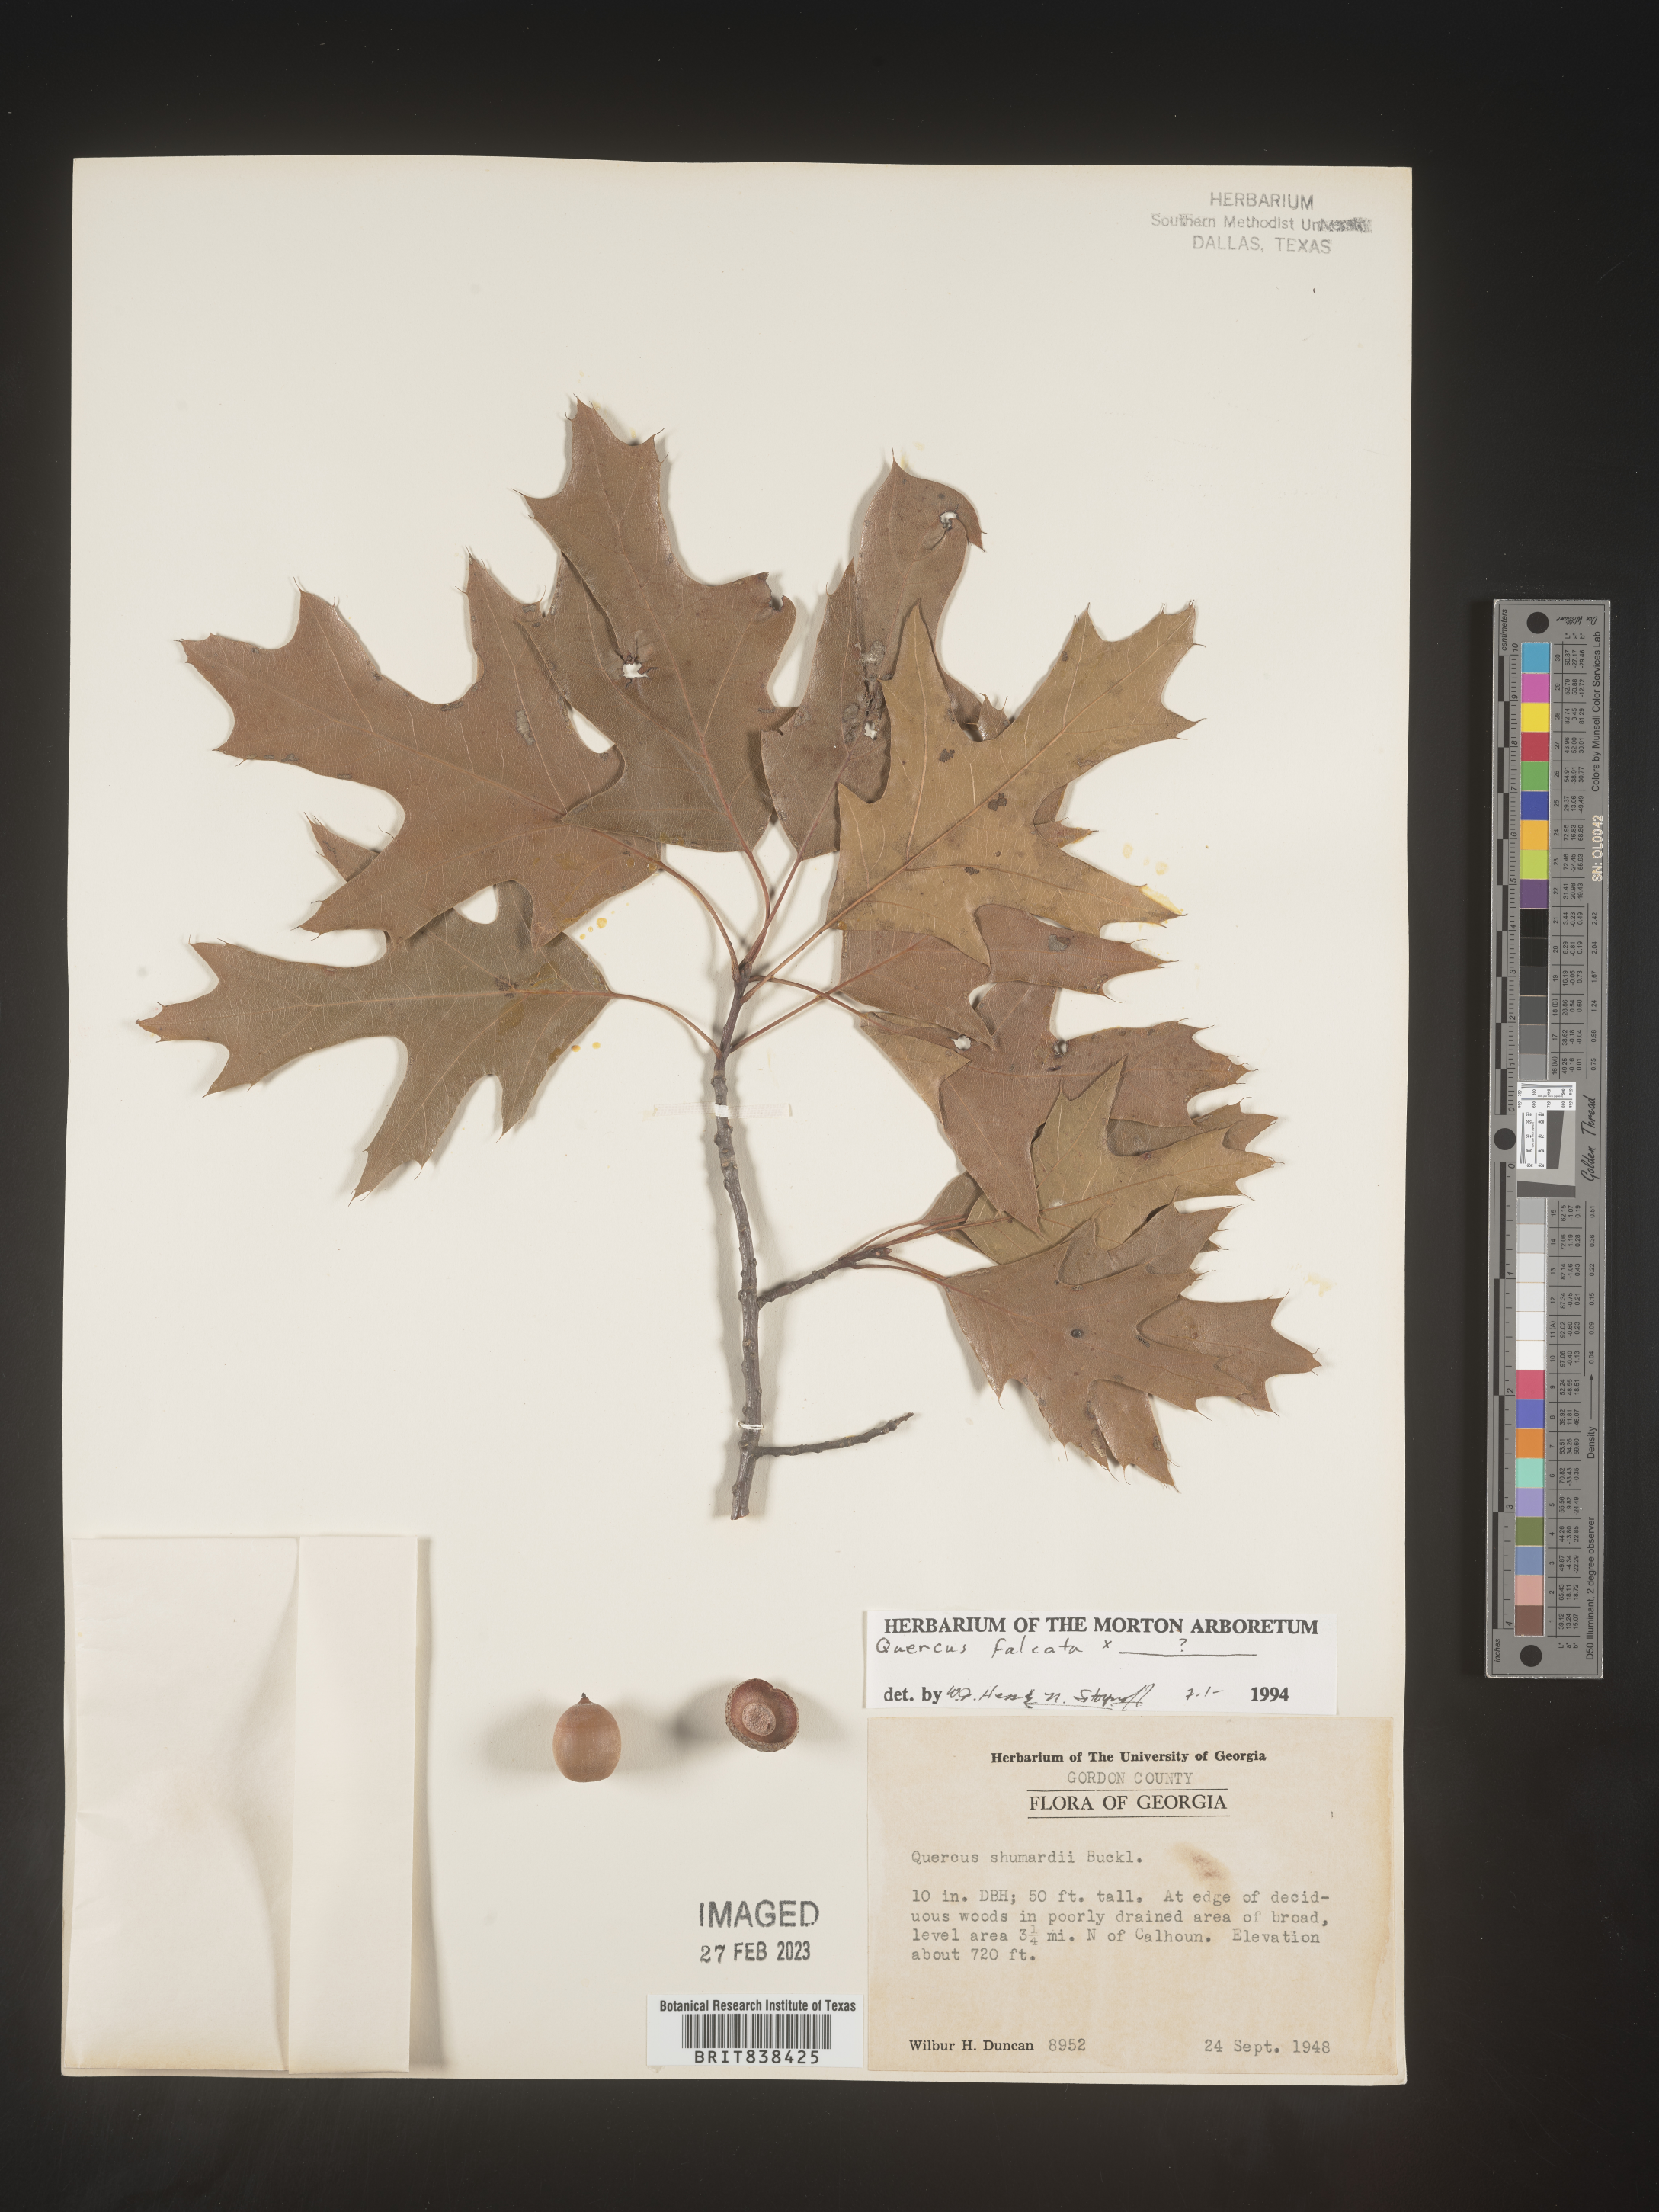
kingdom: Plantae
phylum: Tracheophyta
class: Magnoliopsida
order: Fagales
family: Fagaceae
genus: Quercus
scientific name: Quercus falcata
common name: Southern red oak
